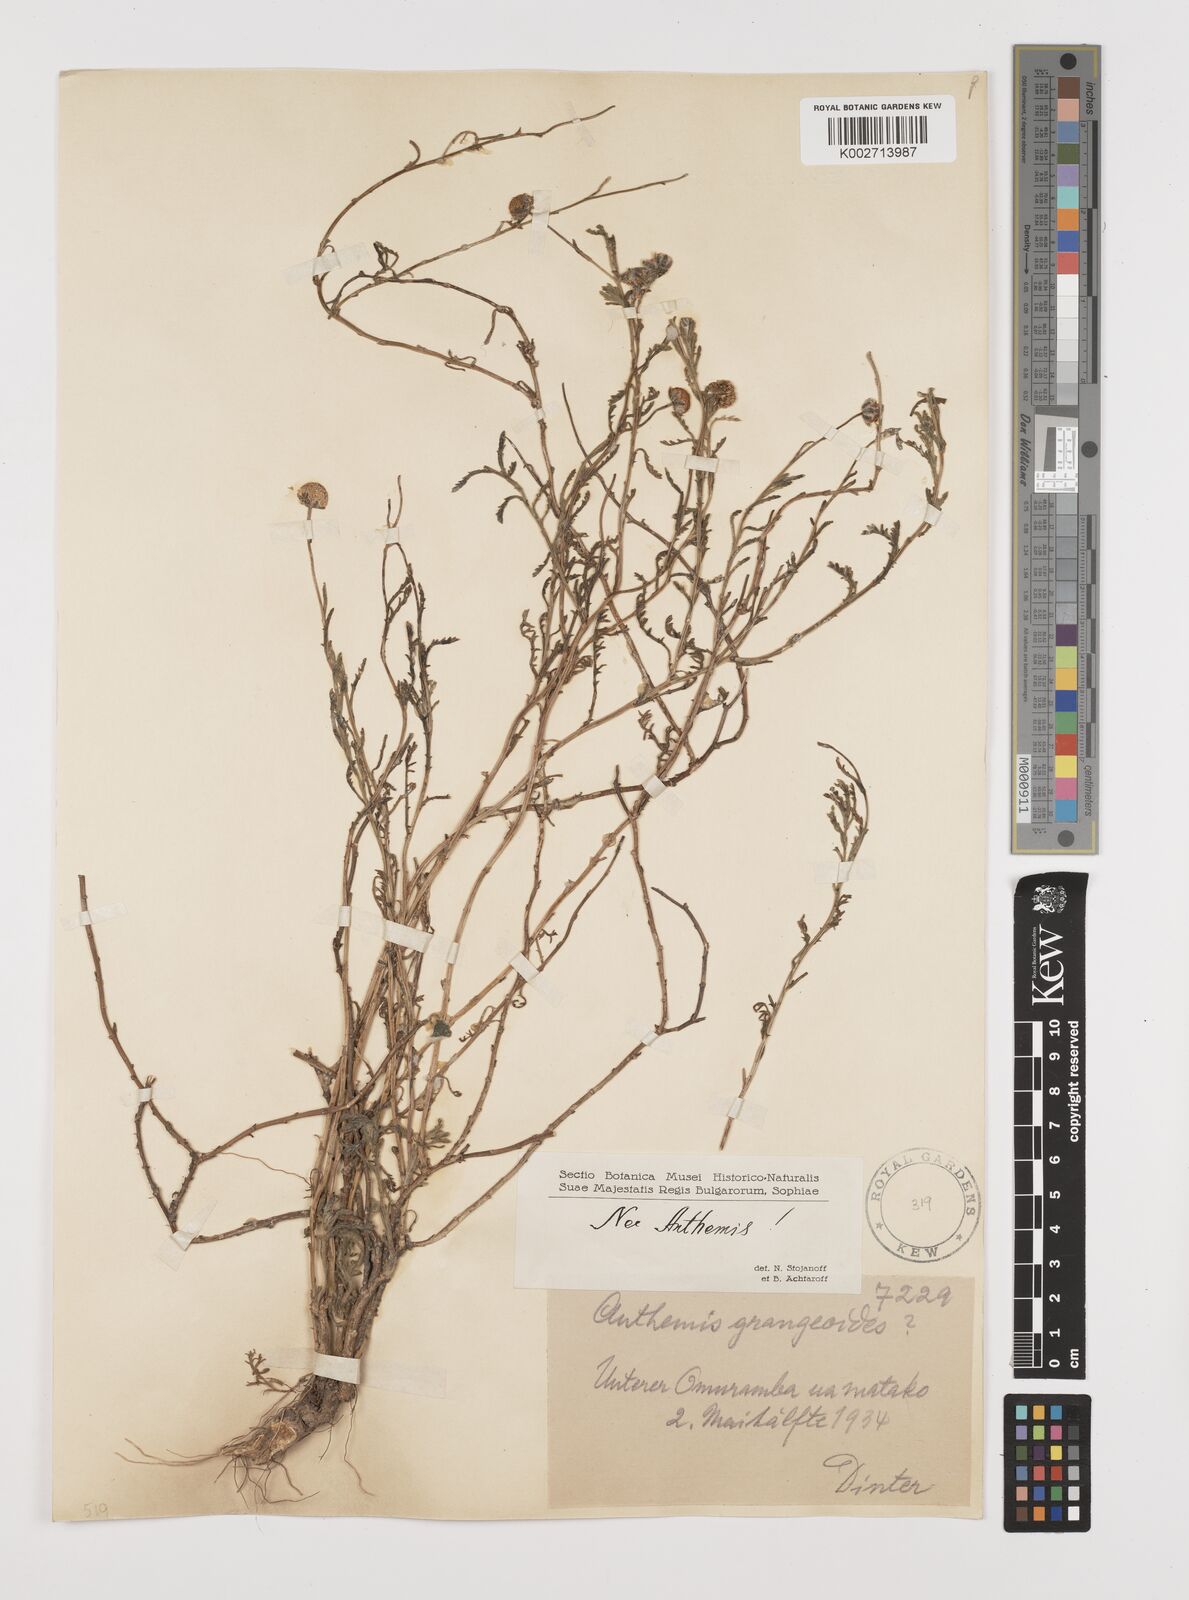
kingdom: Plantae
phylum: Tracheophyta
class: Magnoliopsida
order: Asterales
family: Asteraceae
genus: Anthemis
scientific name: Anthemis
